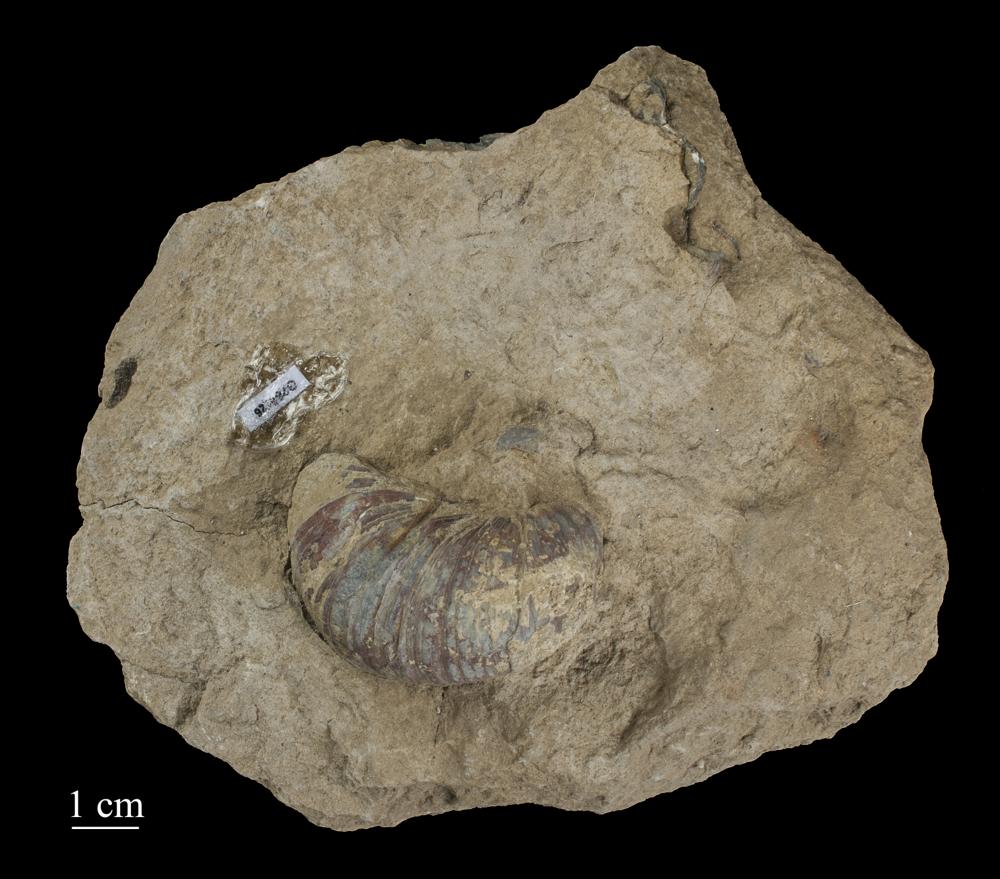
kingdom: Animalia
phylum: Mollusca
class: Bivalvia
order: Ostreida
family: Gryphaeidae
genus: Gryphaea
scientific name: Gryphaea arcuata
